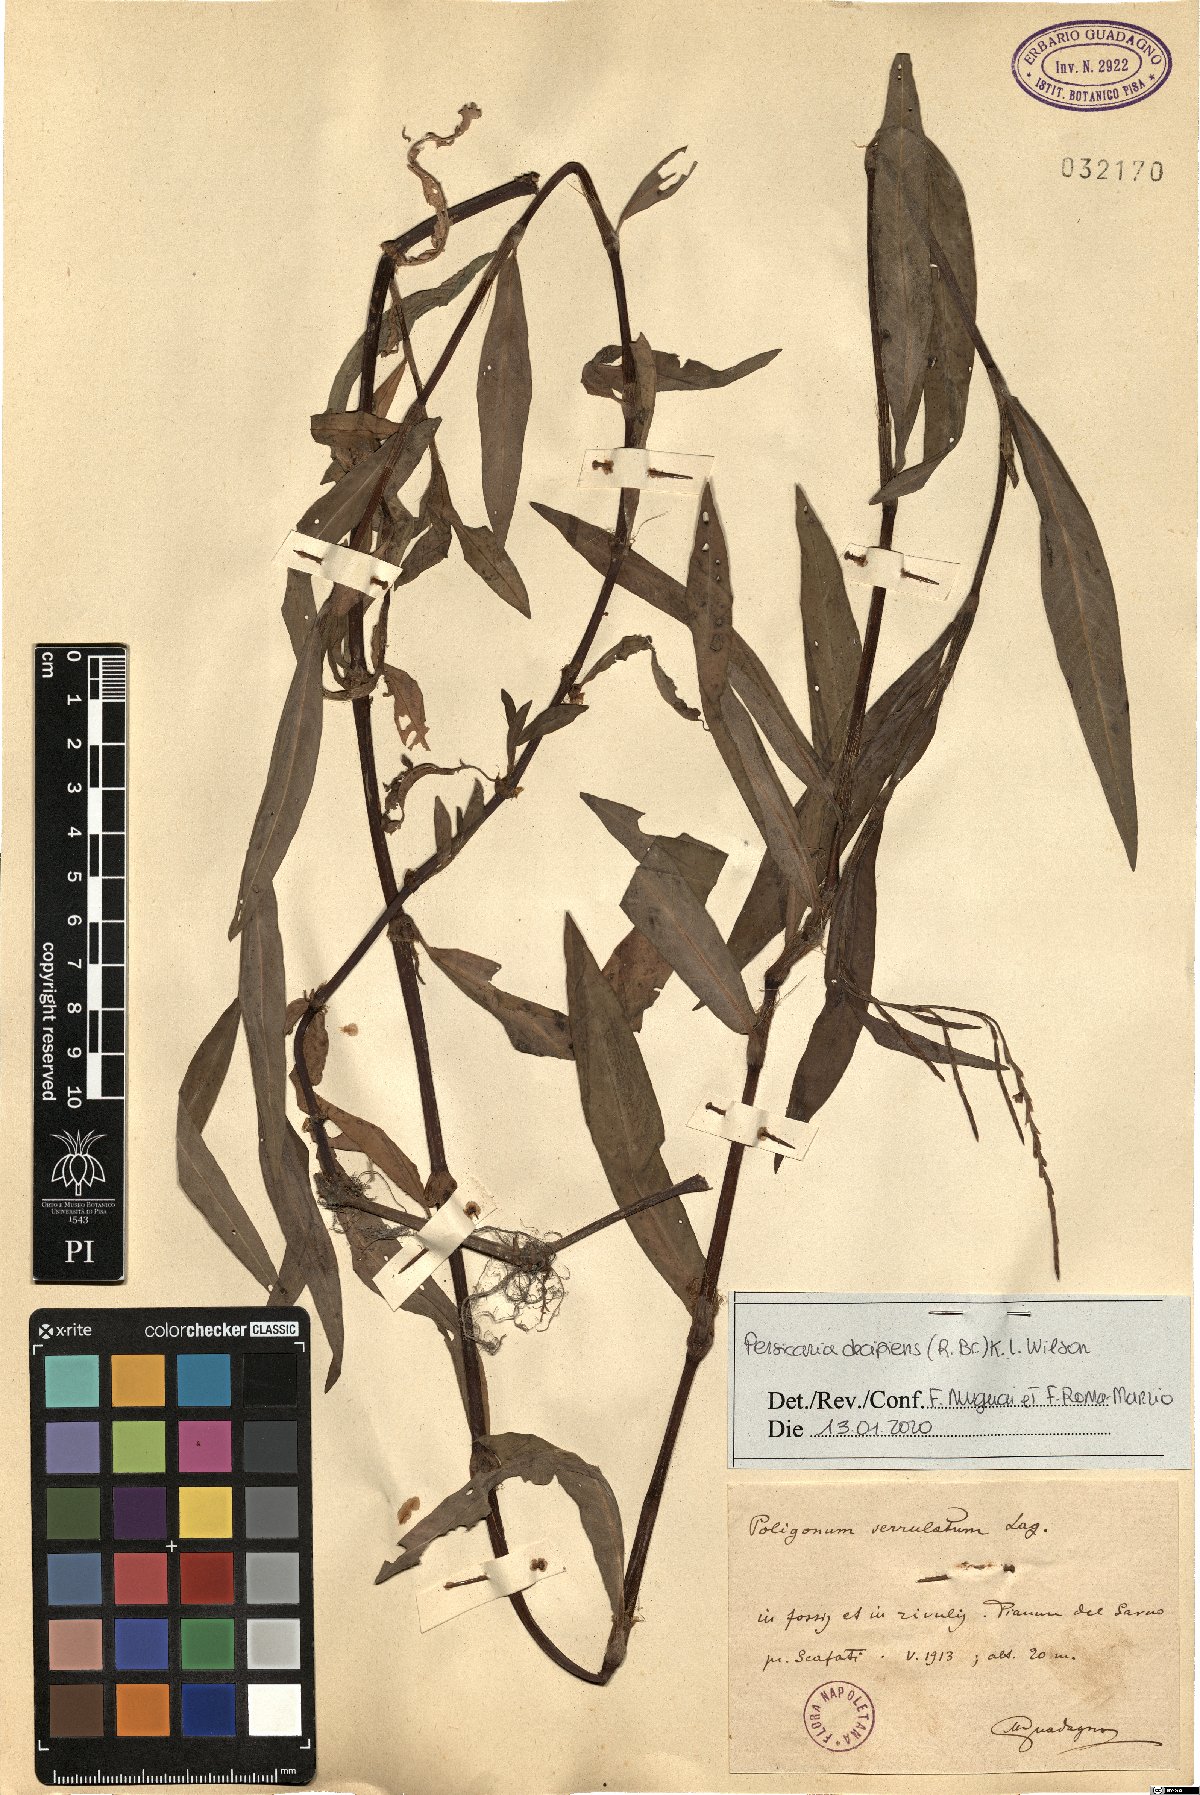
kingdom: Plantae
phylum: Tracheophyta
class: Magnoliopsida
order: Caryophyllales
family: Polygonaceae
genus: Persicaria
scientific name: Persicaria decipiens
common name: Willow-weed
